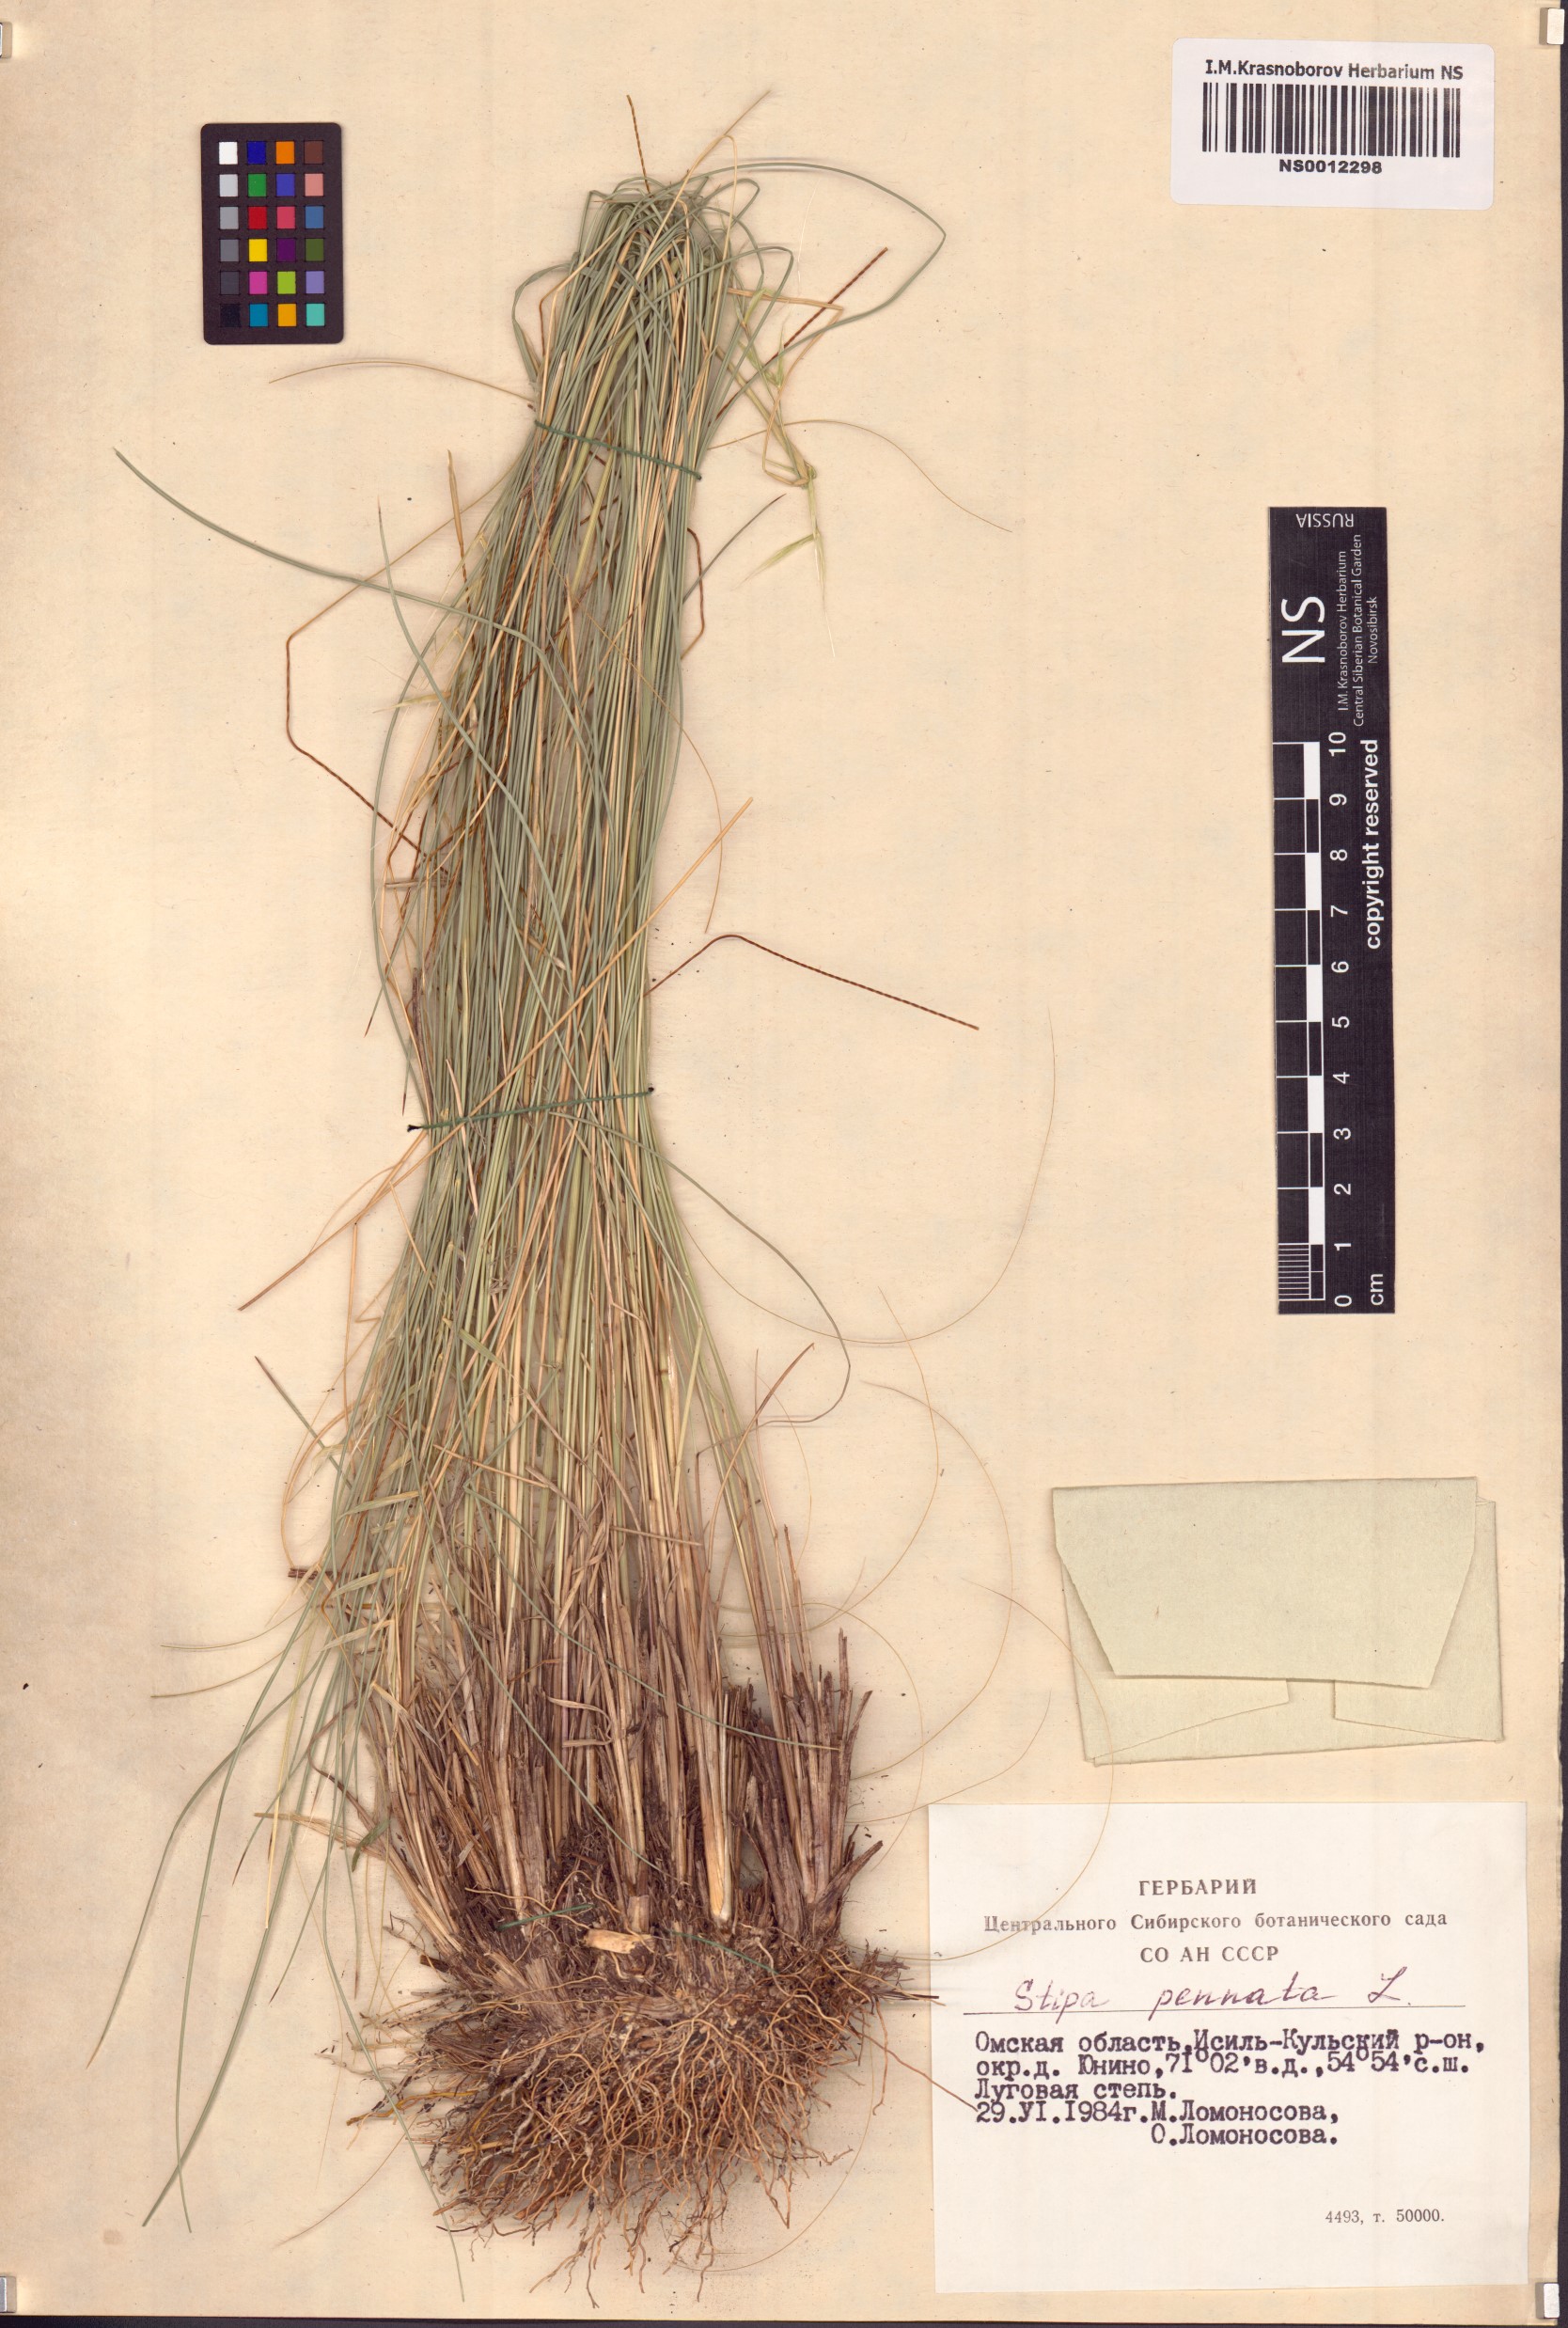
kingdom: Plantae
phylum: Tracheophyta
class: Liliopsida
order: Poales
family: Poaceae
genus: Stipa
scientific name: Stipa pennata
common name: European feather grass
